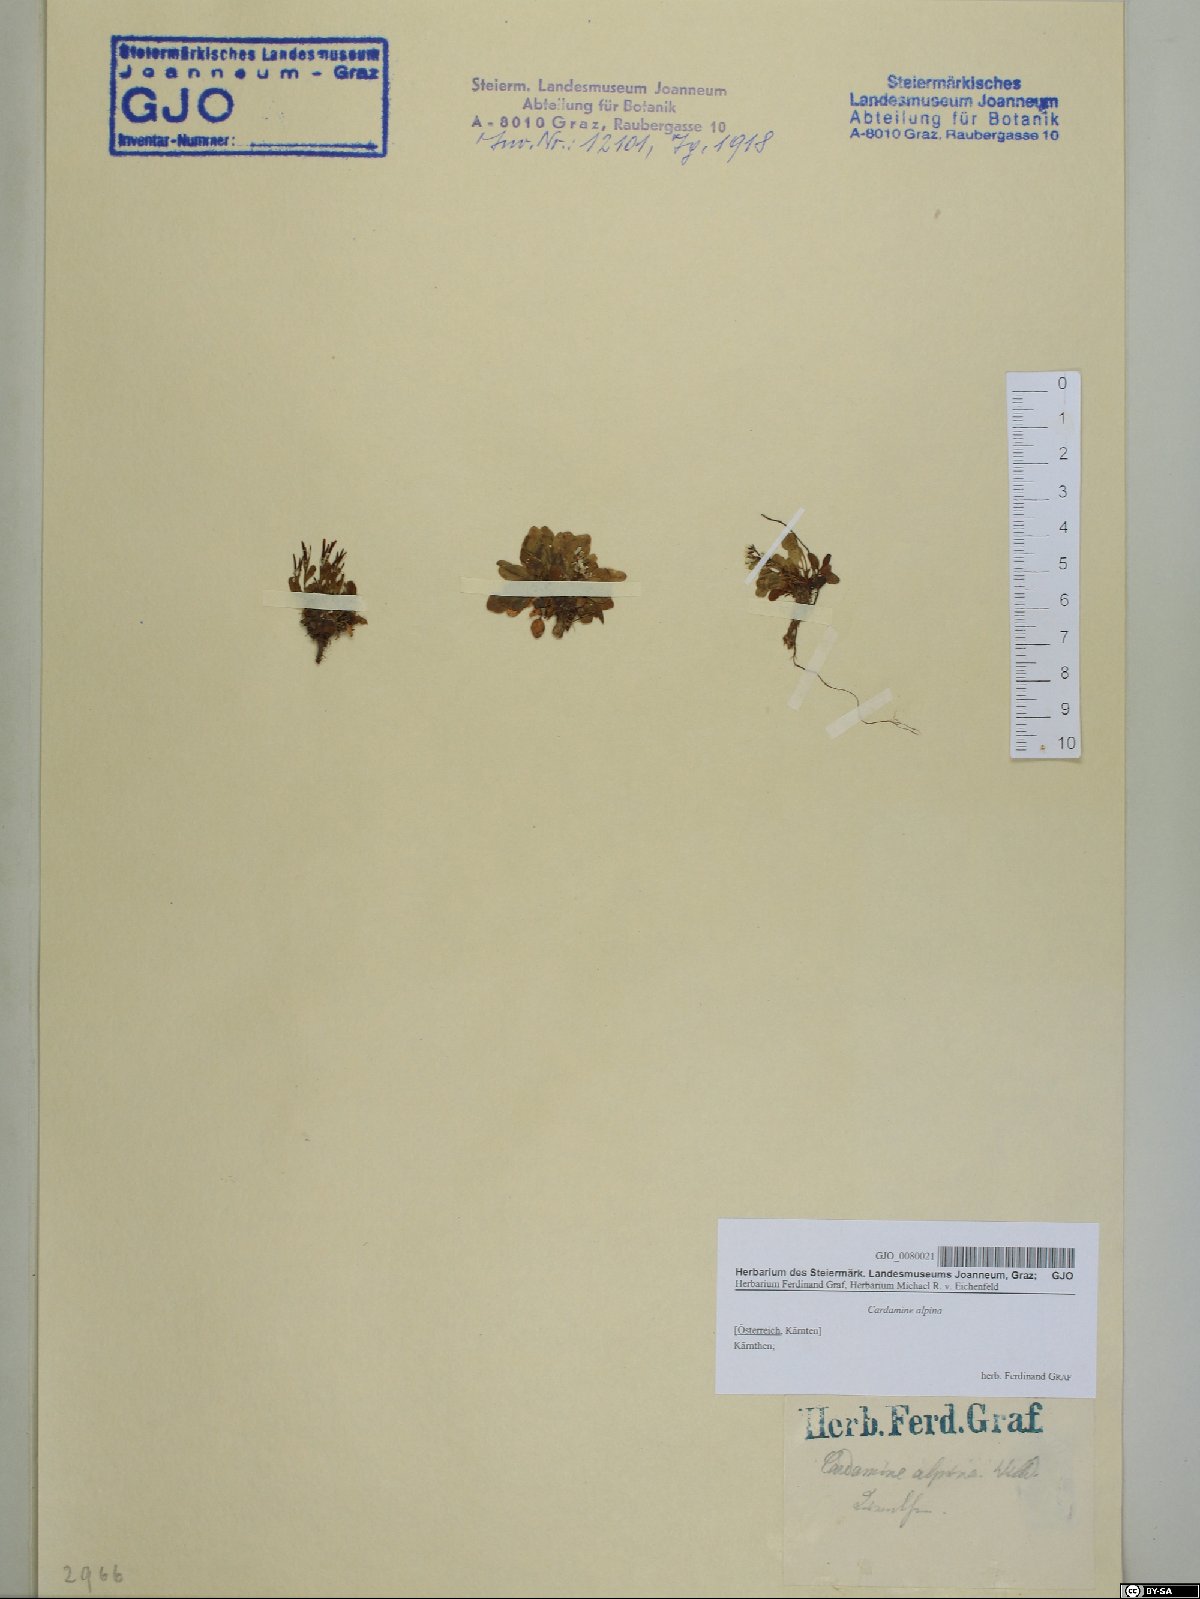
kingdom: Plantae
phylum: Tracheophyta
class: Magnoliopsida
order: Brassicales
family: Brassicaceae
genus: Cardamine
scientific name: Cardamine bellidifolia
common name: Alpine bittercress
